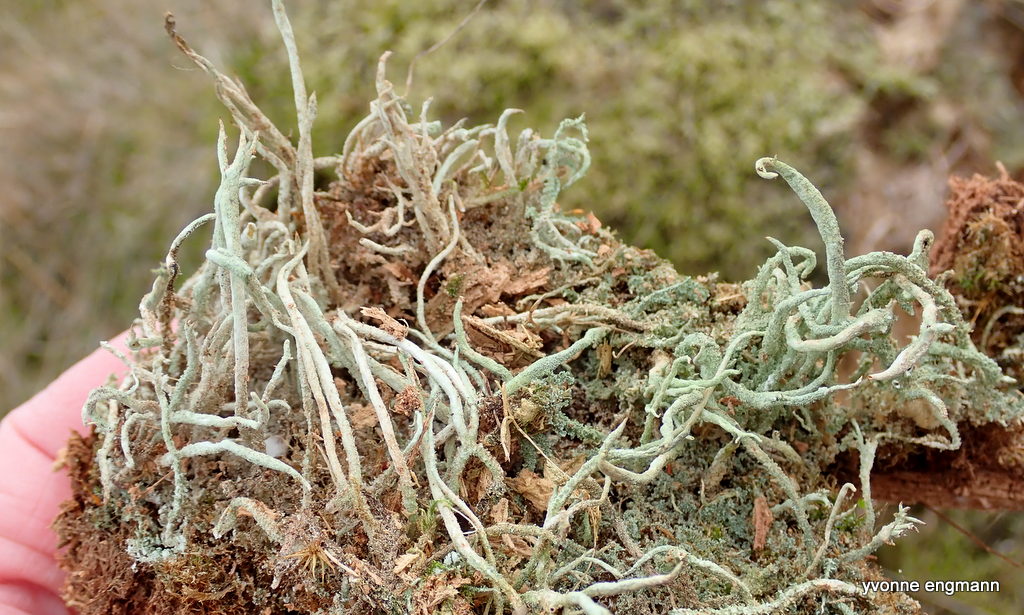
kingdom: Fungi
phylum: Ascomycota
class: Lecanoromycetes
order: Lecanorales
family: Cladoniaceae
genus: Cladonia
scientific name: Cladonia glauca
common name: grågrøn bægerlav
